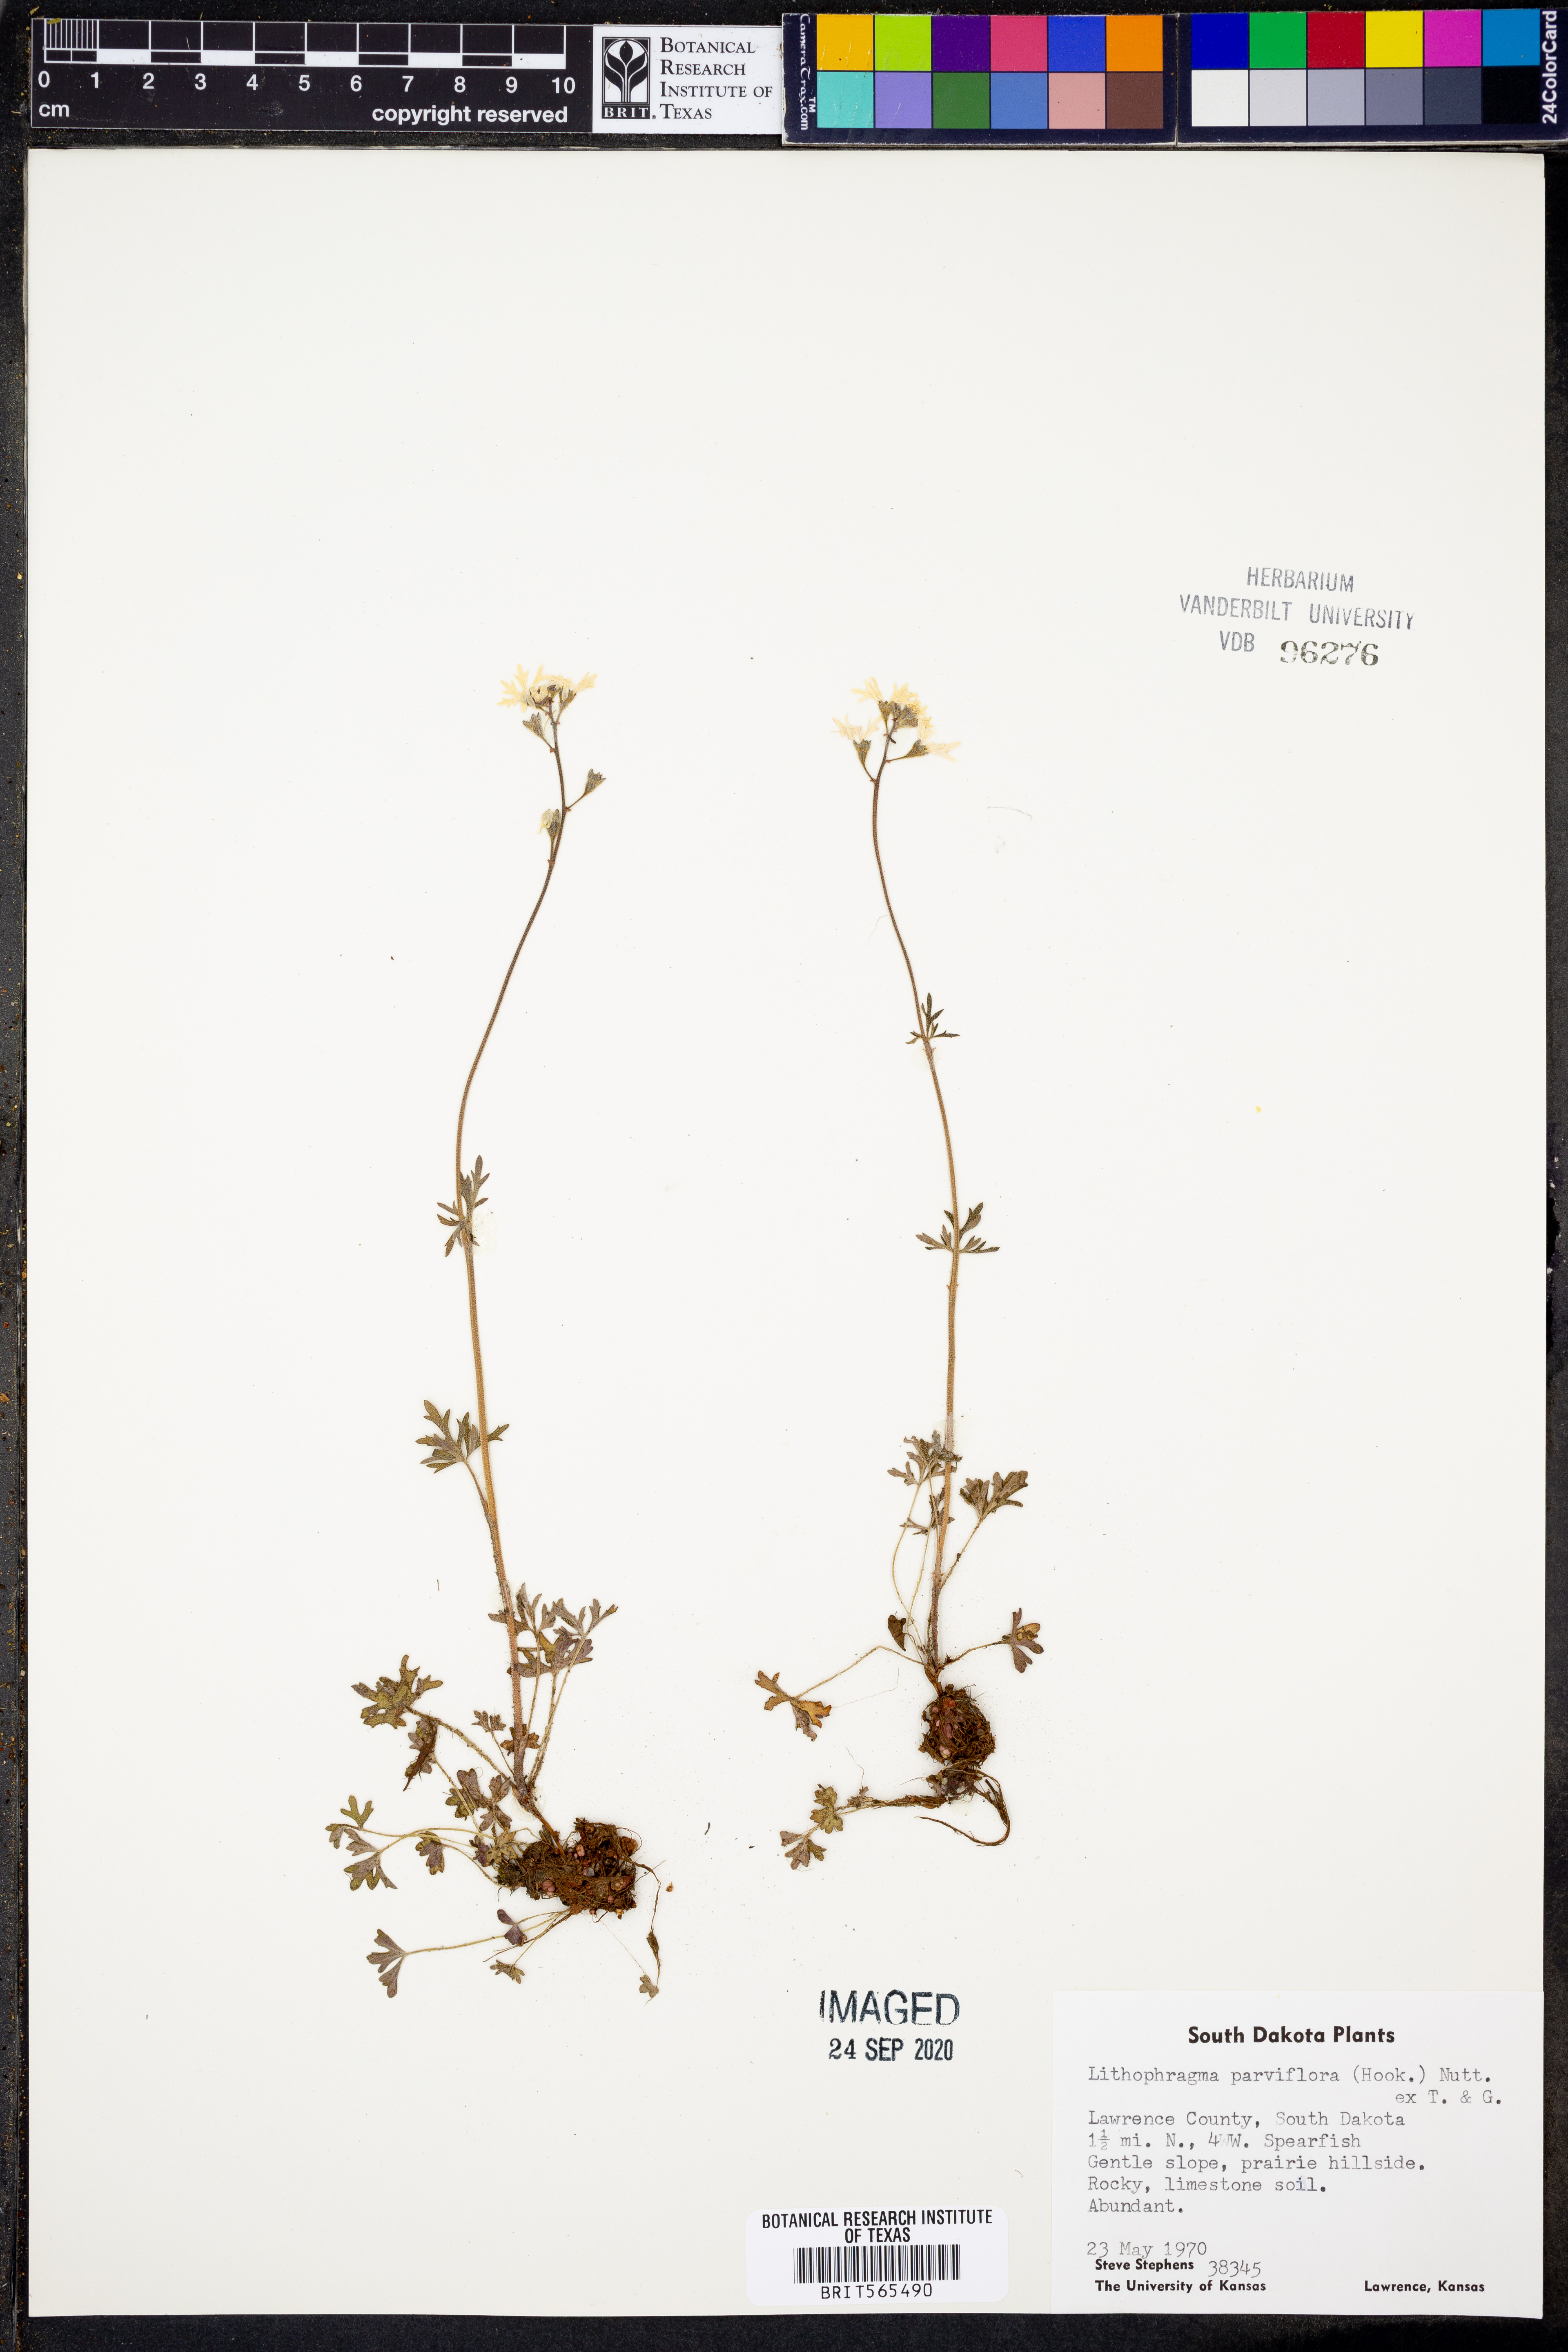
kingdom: Plantae
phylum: Tracheophyta
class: Magnoliopsida
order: Saxifragales
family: Saxifragaceae
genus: Lithophragma
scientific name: Lithophragma parviflorum
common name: Small-flowered fringe-cup
